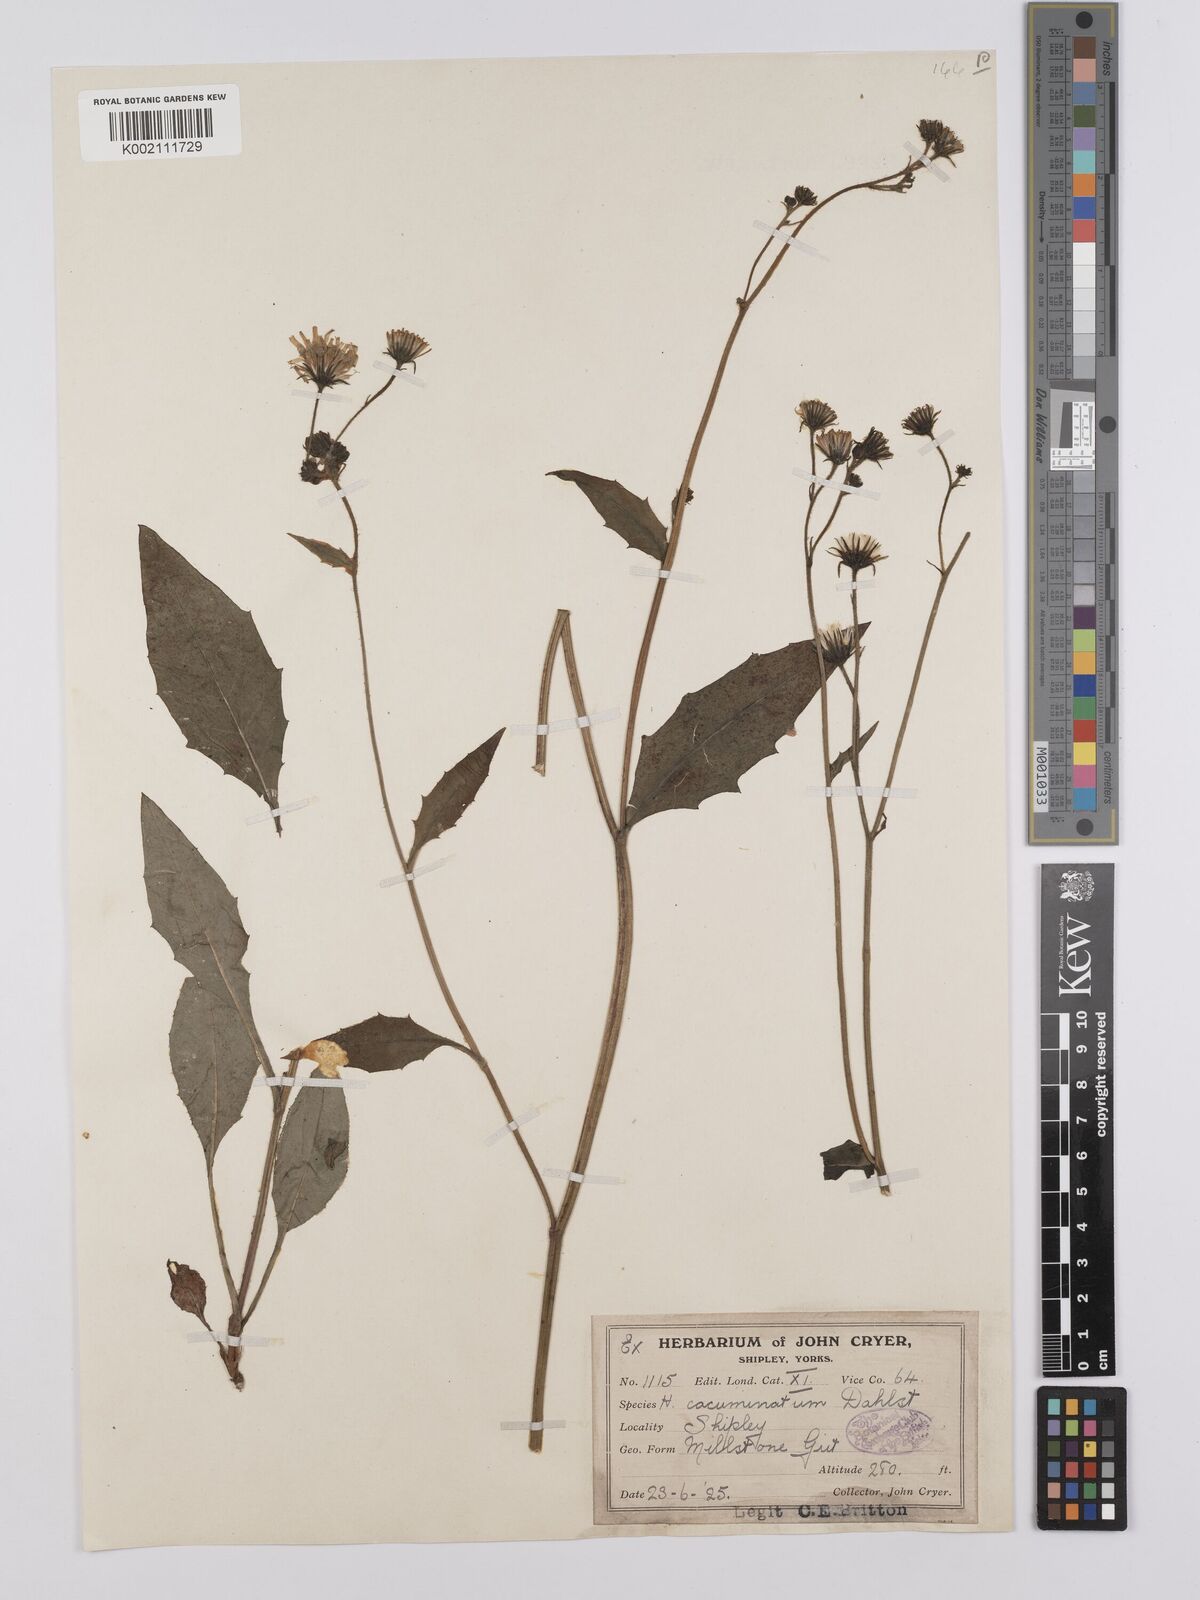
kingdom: Plantae
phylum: Tracheophyta
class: Magnoliopsida
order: Asterales
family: Asteraceae
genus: Hieracium
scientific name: Hieracium
